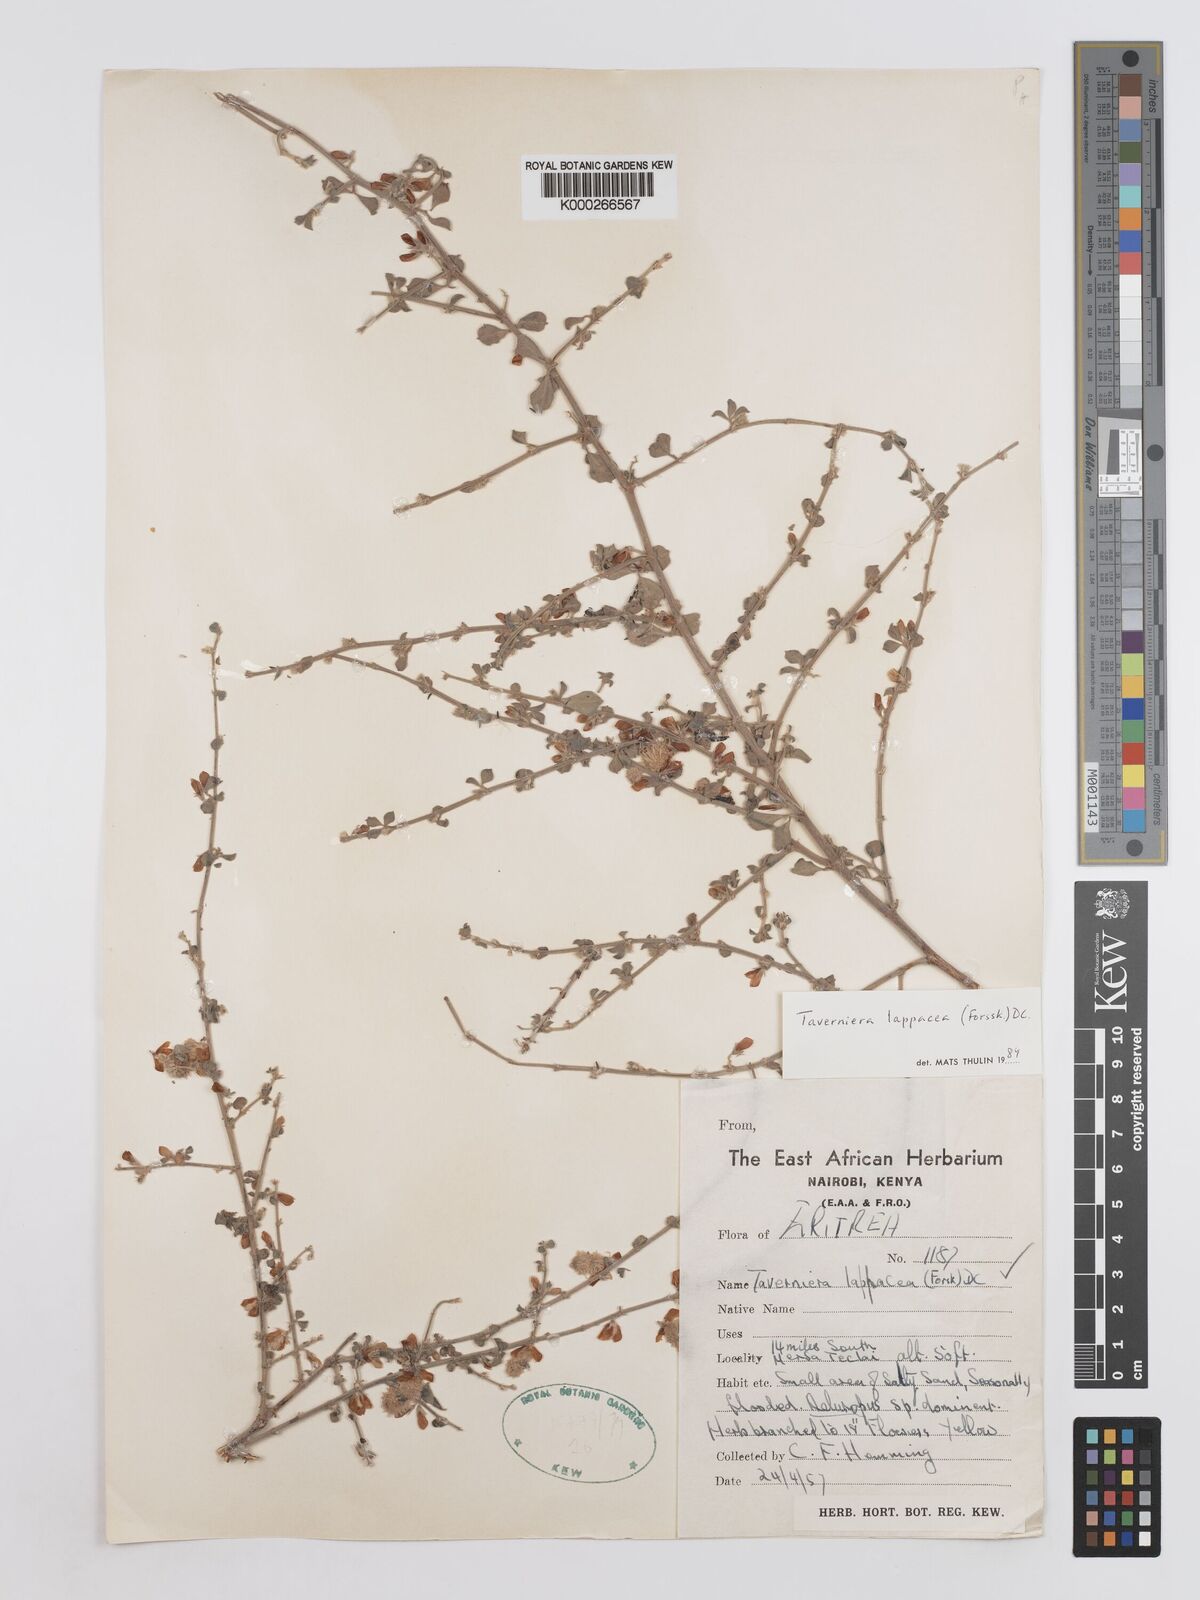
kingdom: Plantae
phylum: Tracheophyta
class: Magnoliopsida
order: Fabales
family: Fabaceae
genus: Taverniera
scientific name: Taverniera lappacea
